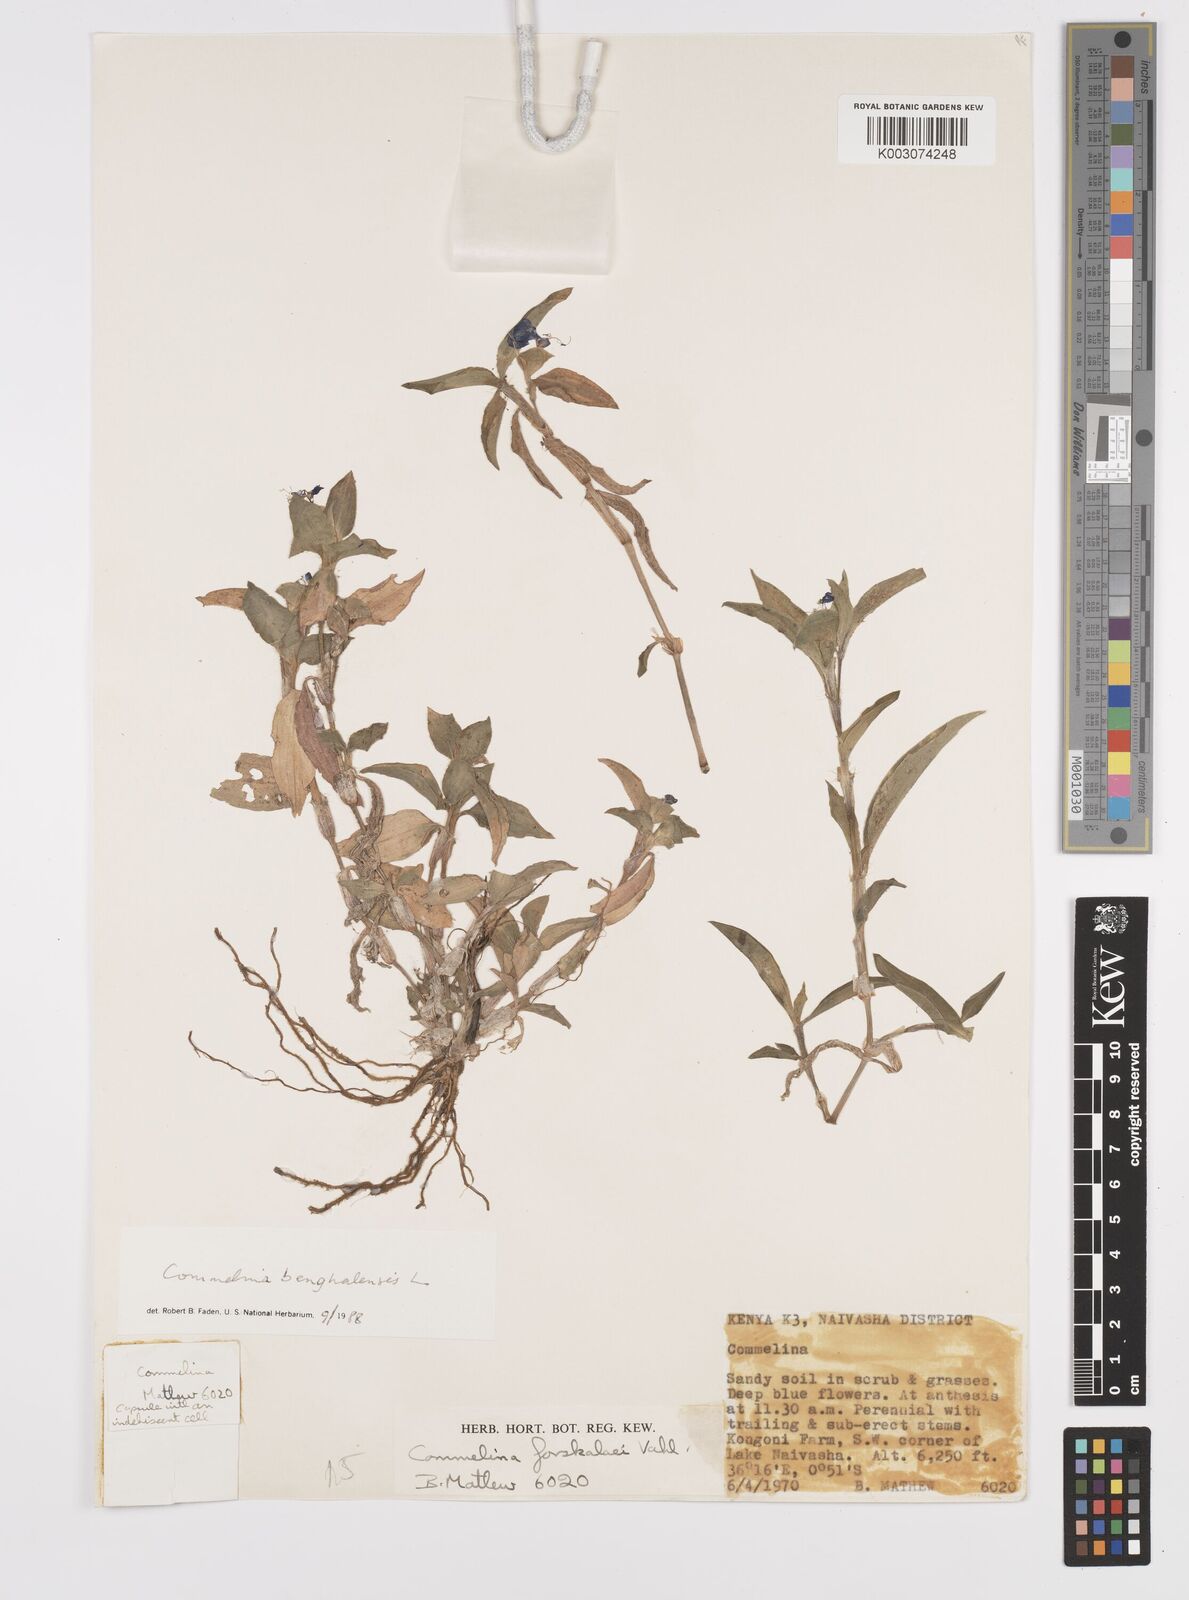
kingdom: Plantae
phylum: Tracheophyta
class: Liliopsida
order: Commelinales
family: Commelinaceae
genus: Commelina
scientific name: Commelina benghalensis
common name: Jio
